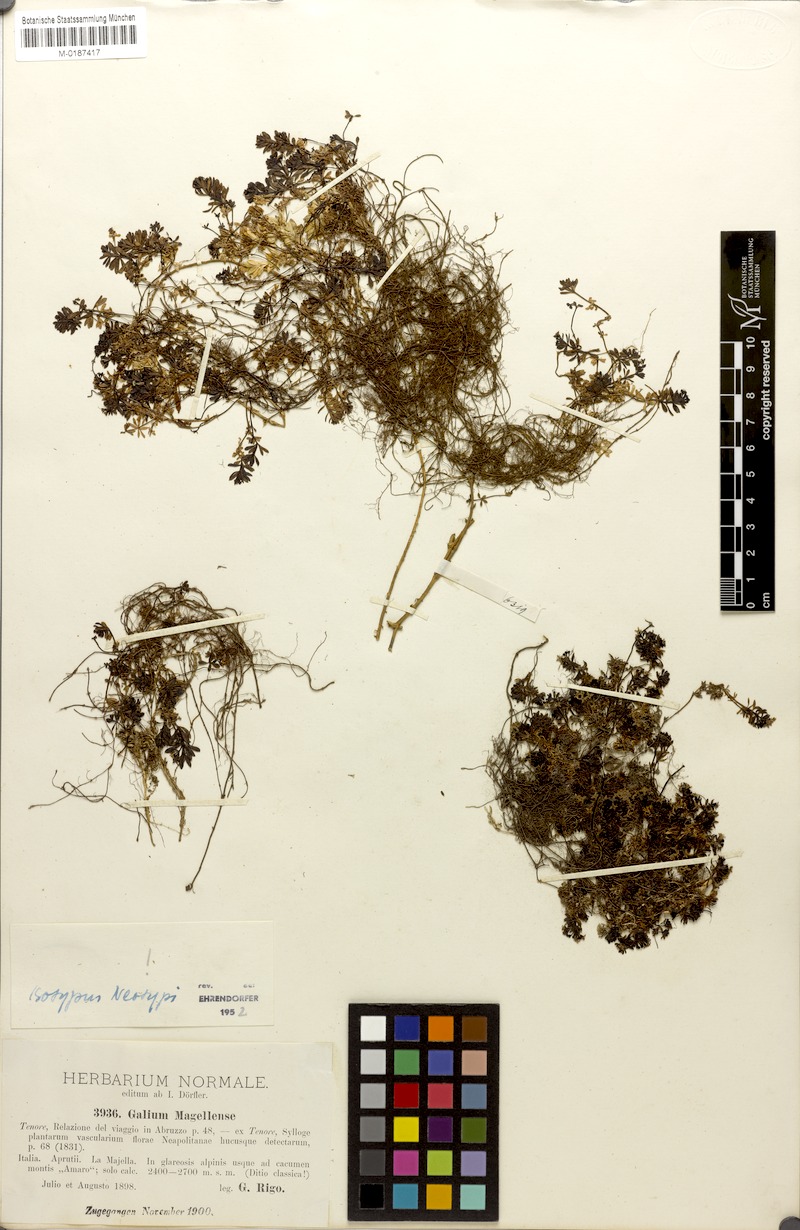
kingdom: Plantae
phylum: Tracheophyta
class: Magnoliopsida
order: Gentianales
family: Rubiaceae
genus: Galium
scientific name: Galium magellense
